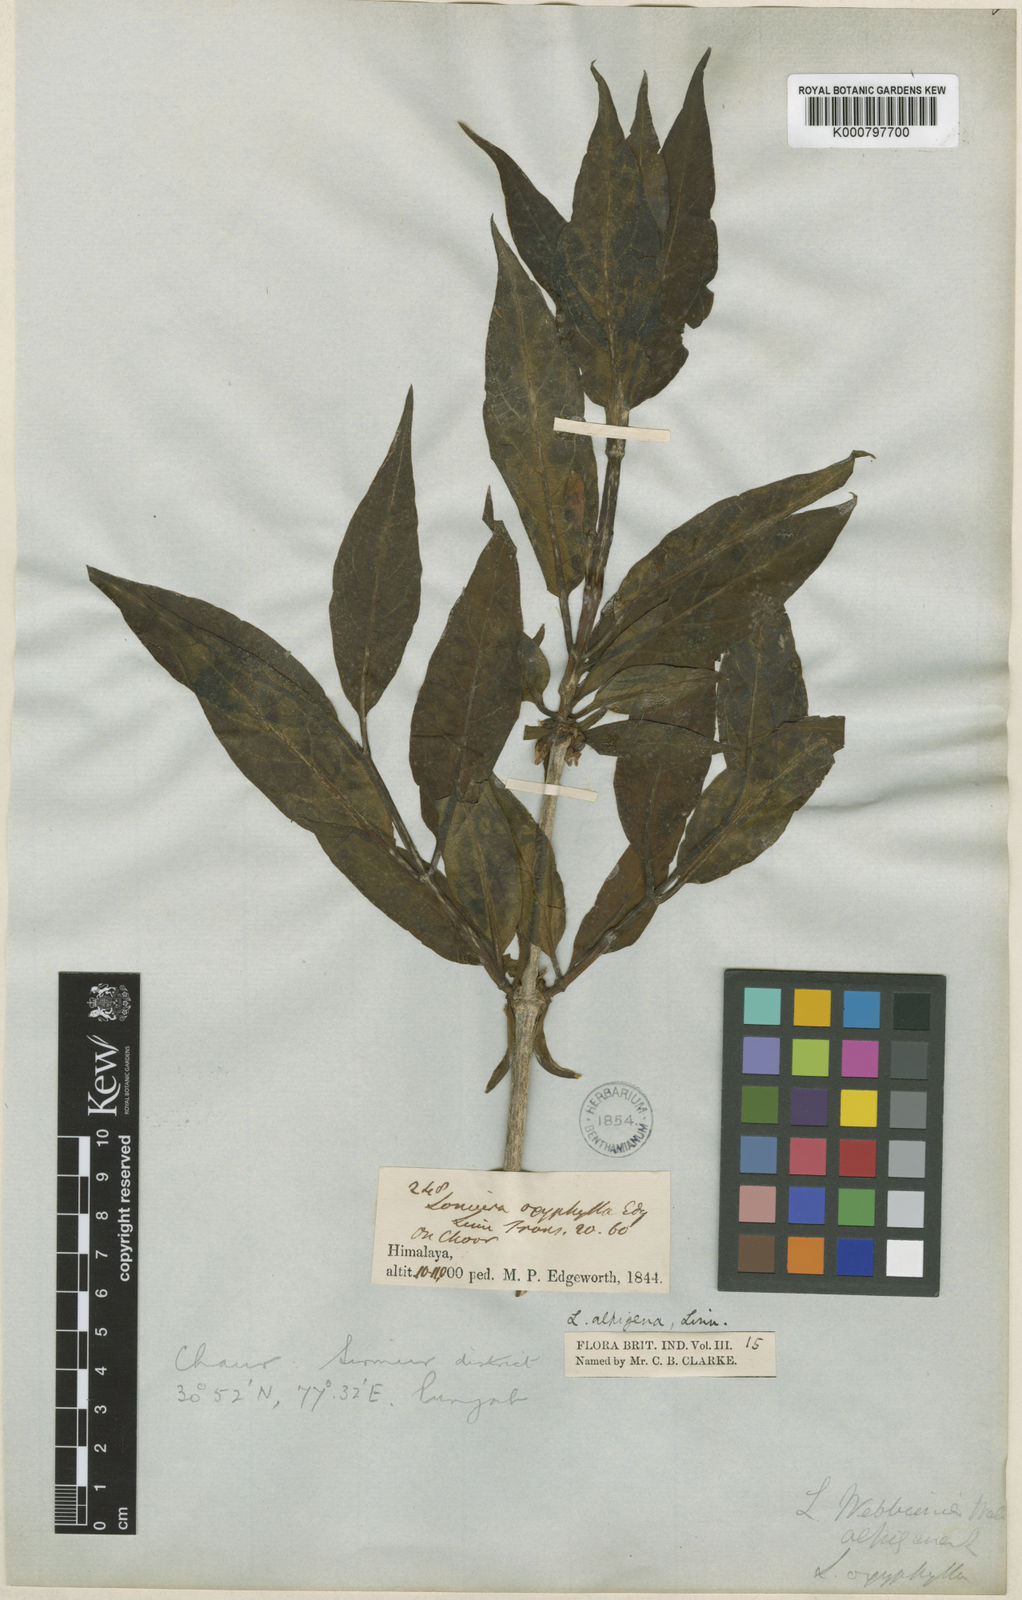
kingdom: Plantae
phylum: Tracheophyta
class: Magnoliopsida
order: Dipsacales
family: Caprifoliaceae
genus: Lonicera
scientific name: Lonicera heterophylla
